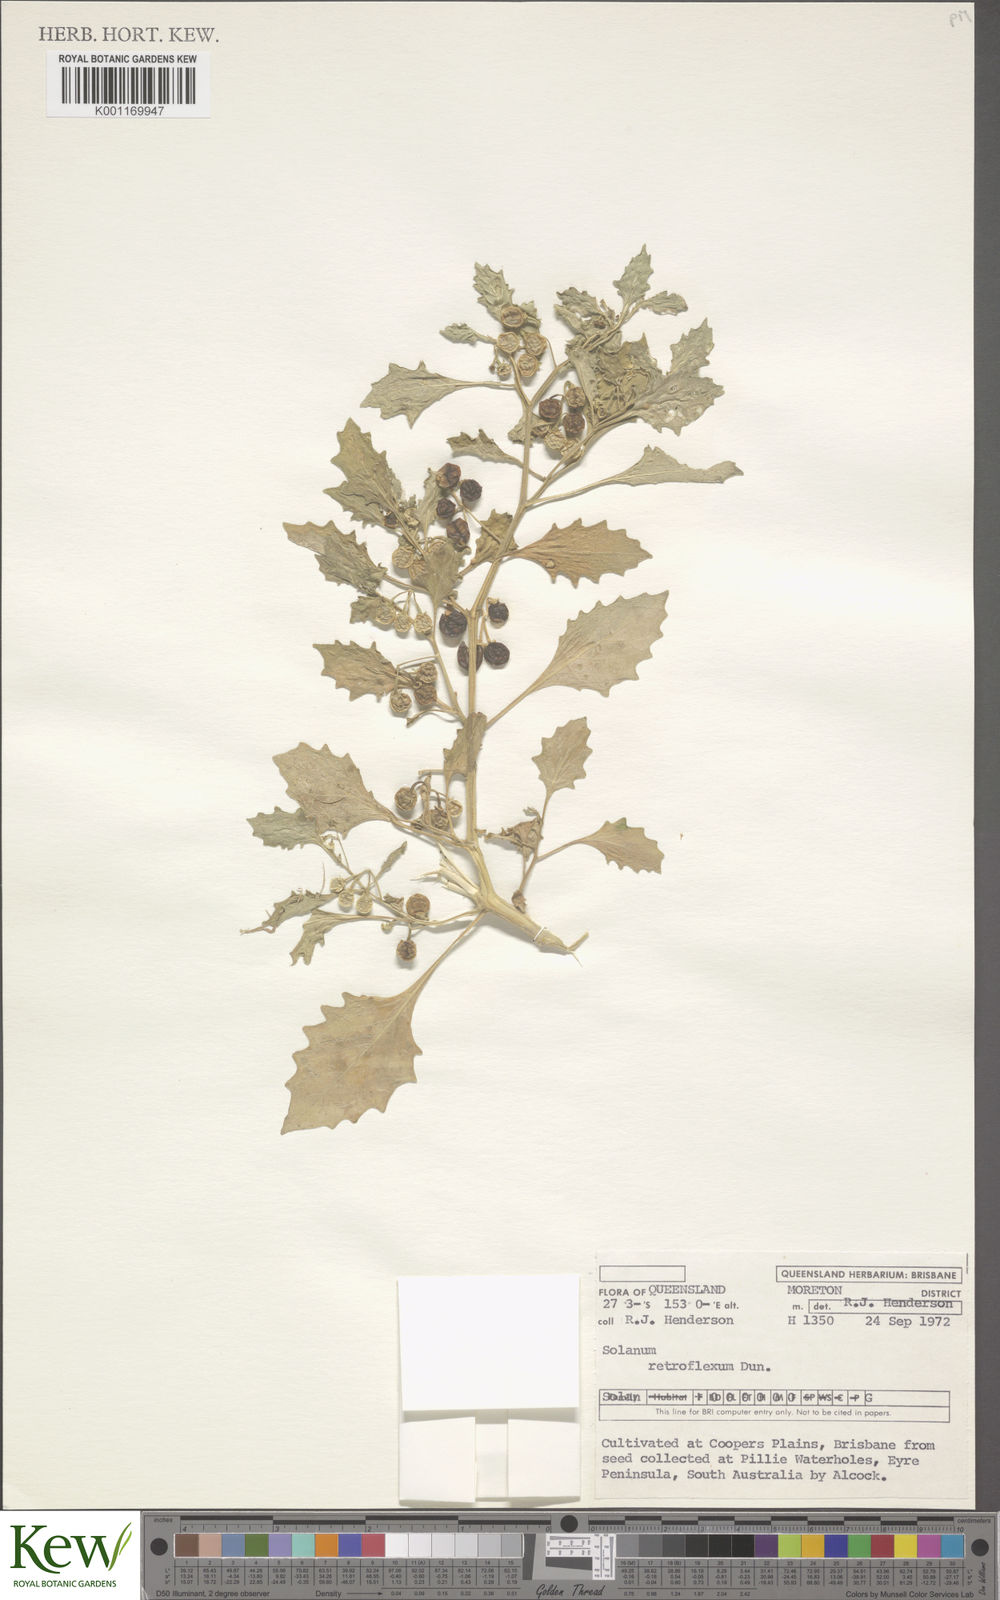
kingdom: Plantae
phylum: Tracheophyta
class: Magnoliopsida
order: Solanales
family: Solanaceae
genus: Solanum
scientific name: Solanum retroflexum
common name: Wonderberry
